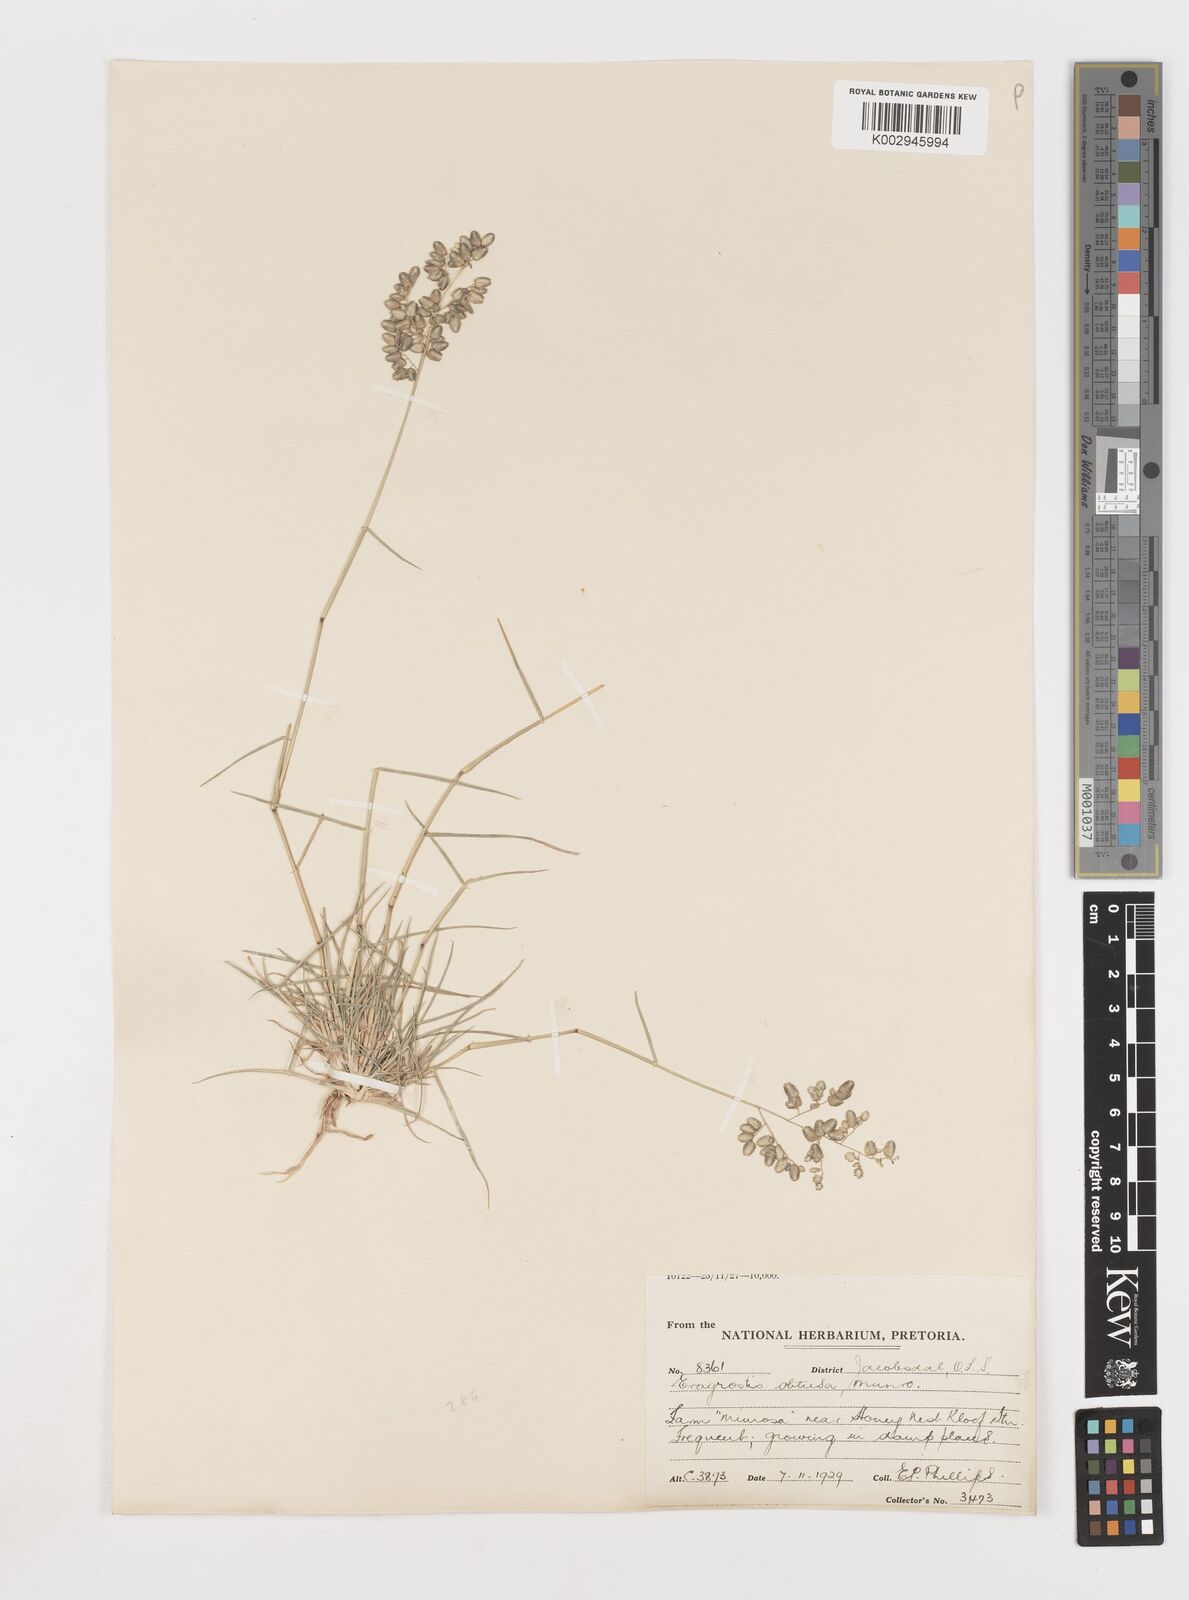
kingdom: Plantae
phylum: Tracheophyta
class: Liliopsida
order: Poales
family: Poaceae
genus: Eragrostis
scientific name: Eragrostis obtusa
